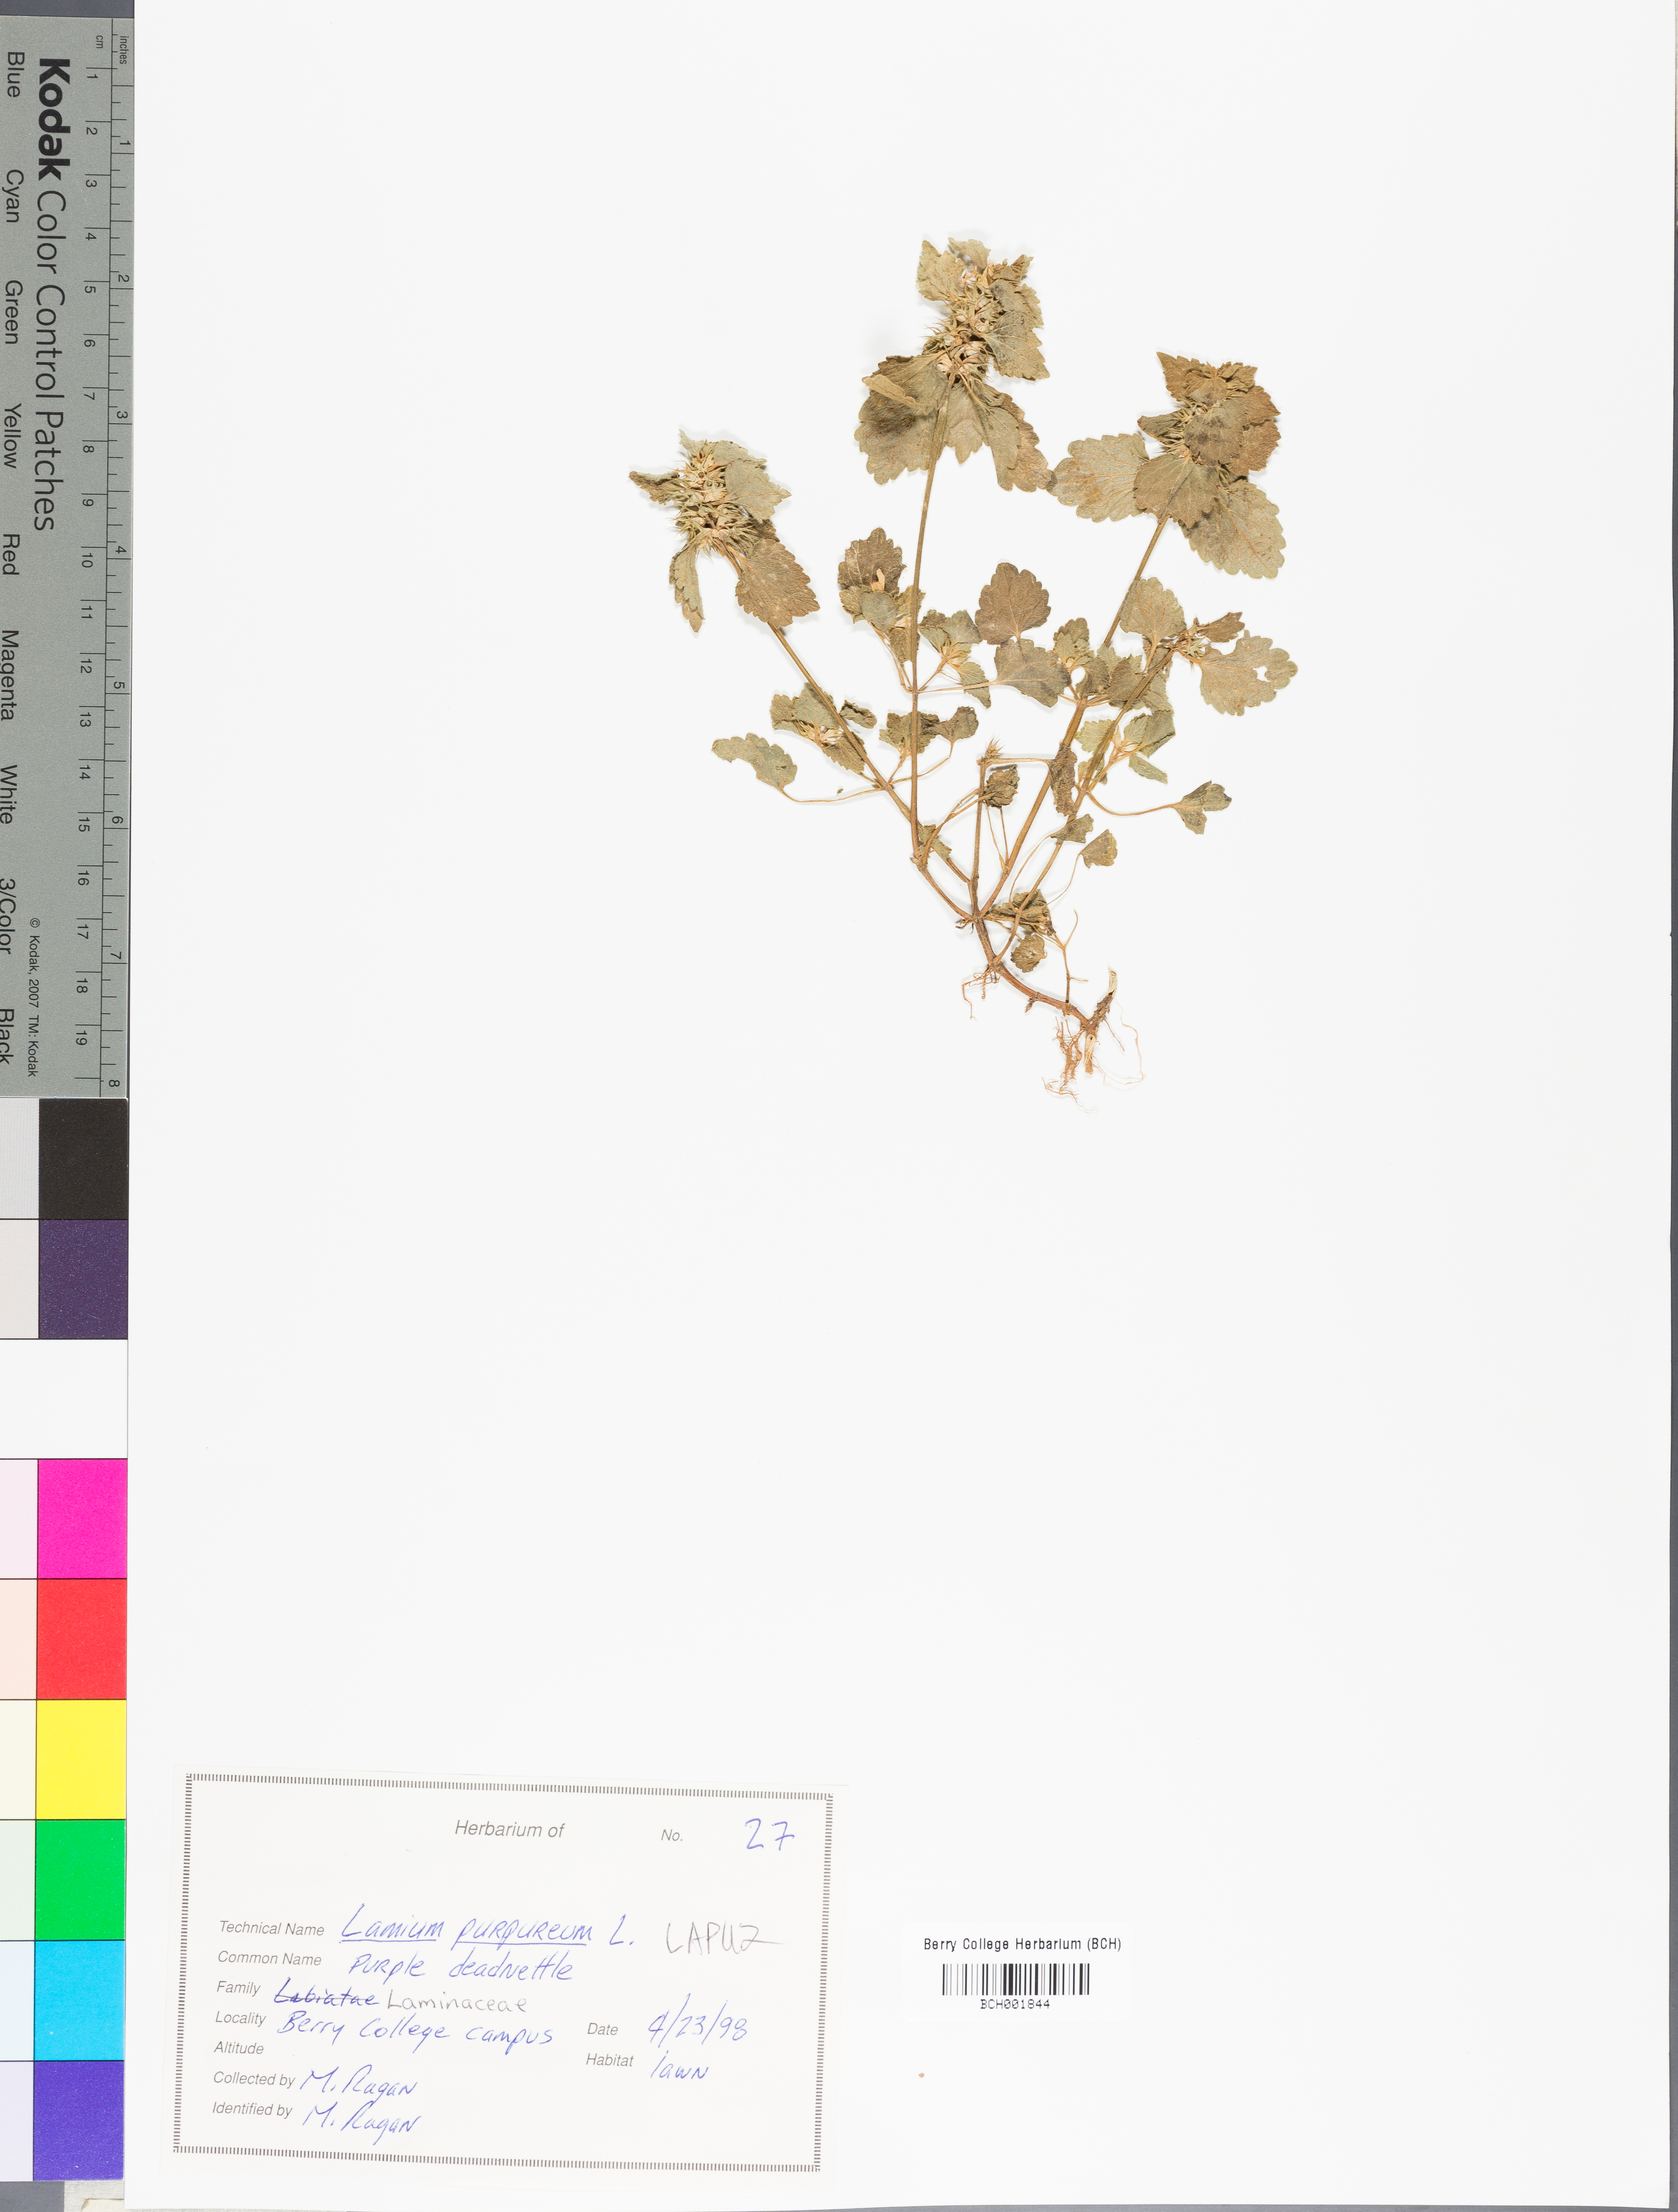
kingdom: Plantae
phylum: Tracheophyta
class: Magnoliopsida
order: Lamiales
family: Lamiaceae
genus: Lamium
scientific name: Lamium purpureum
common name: Red dead-nettle
